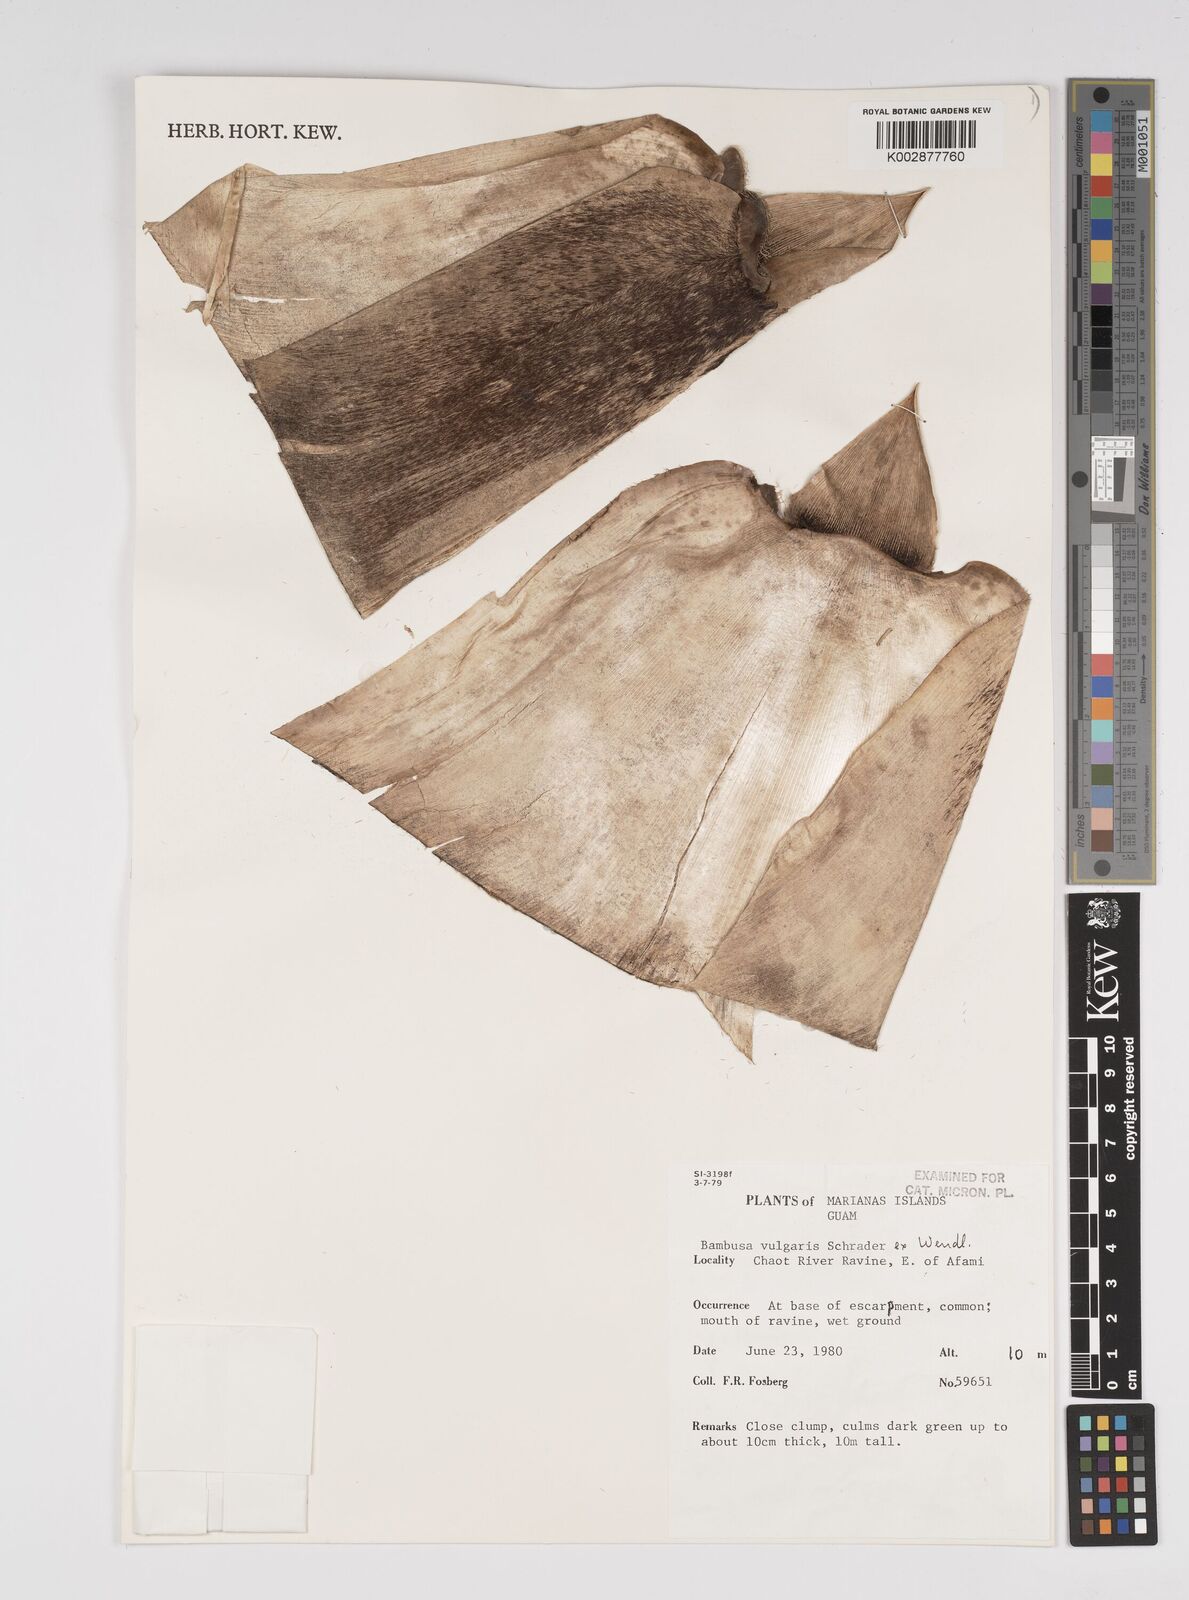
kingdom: Plantae
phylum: Tracheophyta
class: Liliopsida
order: Poales
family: Poaceae
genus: Bambusa
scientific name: Bambusa
